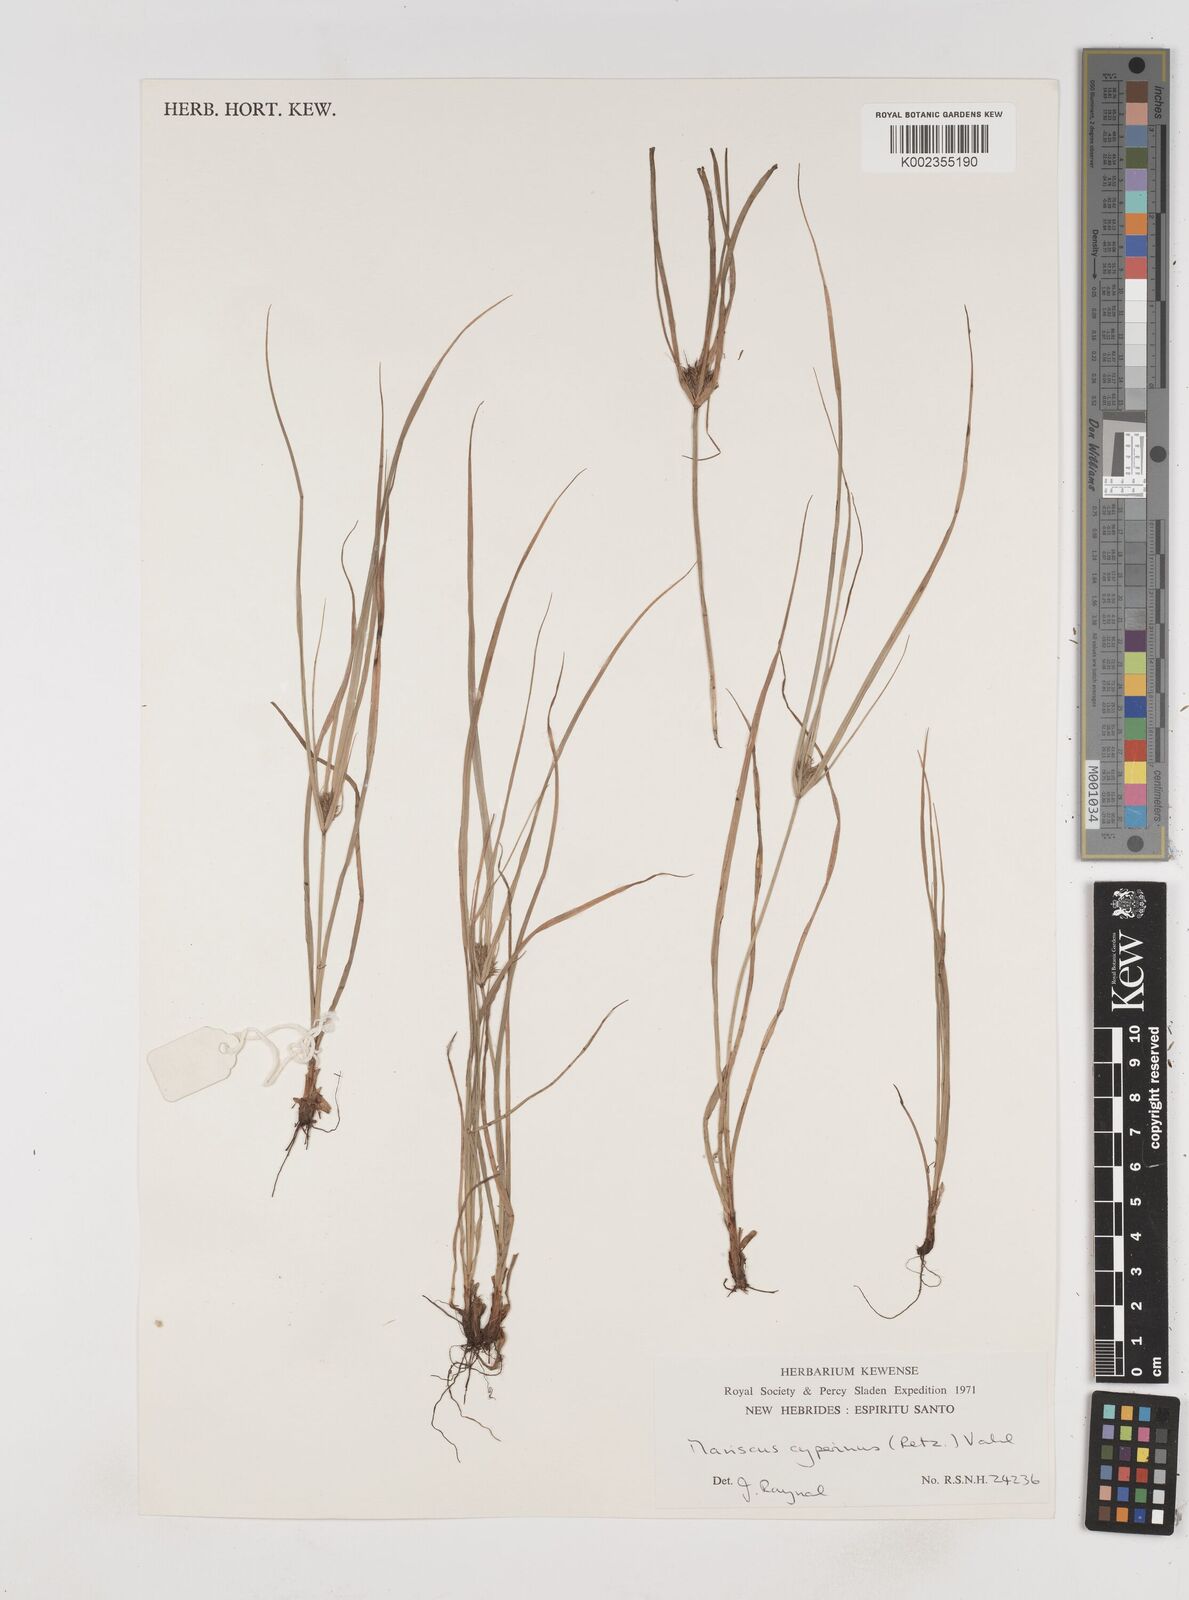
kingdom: Plantae
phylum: Tracheophyta
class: Liliopsida
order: Poales
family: Cyperaceae
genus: Cyperus
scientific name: Cyperus cyperinus
